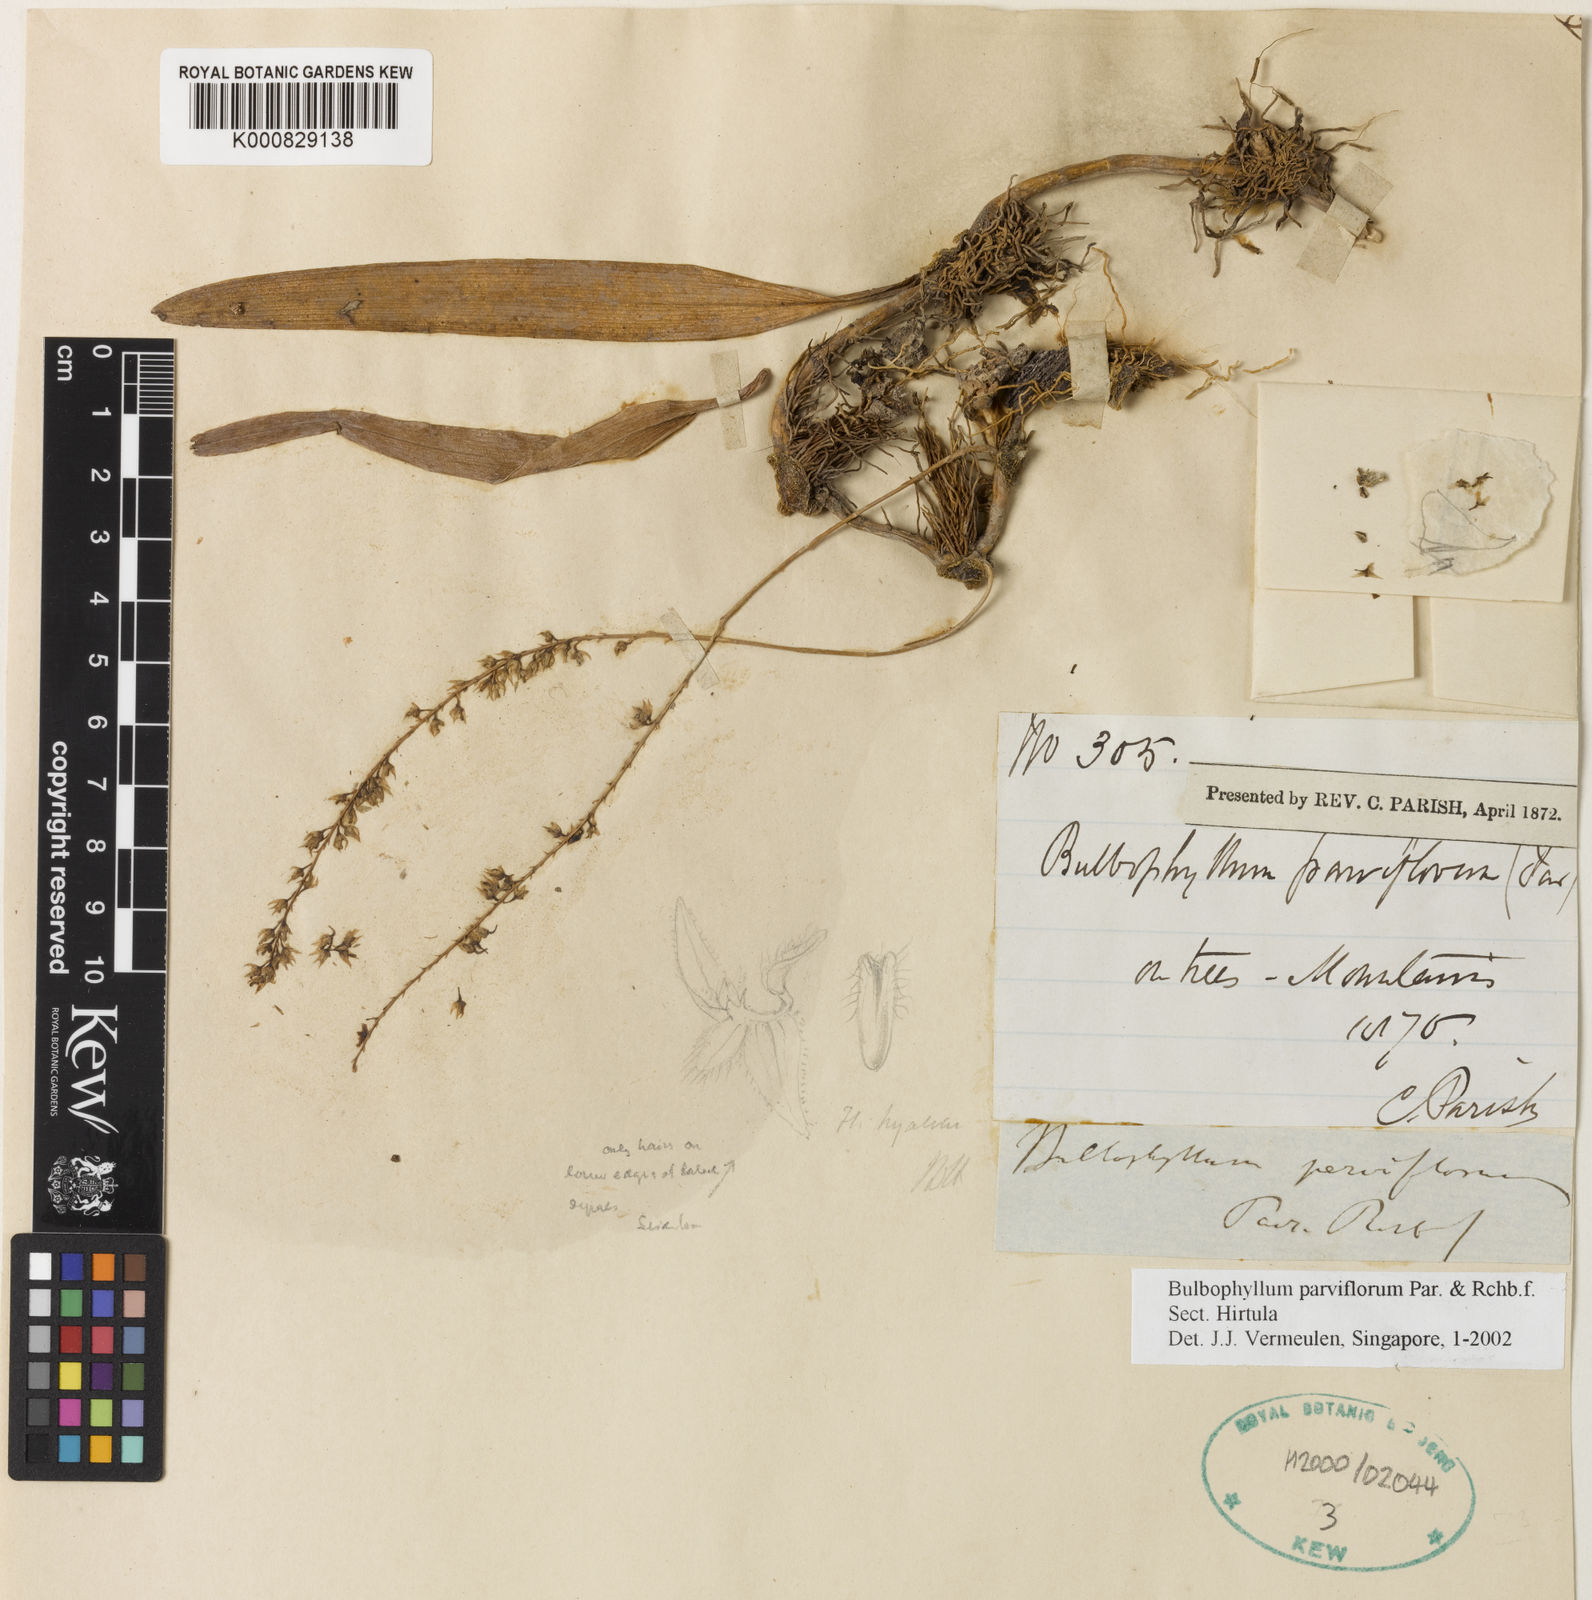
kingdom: Plantae
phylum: Tracheophyta
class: Liliopsida
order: Asparagales
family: Orchidaceae
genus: Bulbophyllum
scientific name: Bulbophyllum parviflorum
